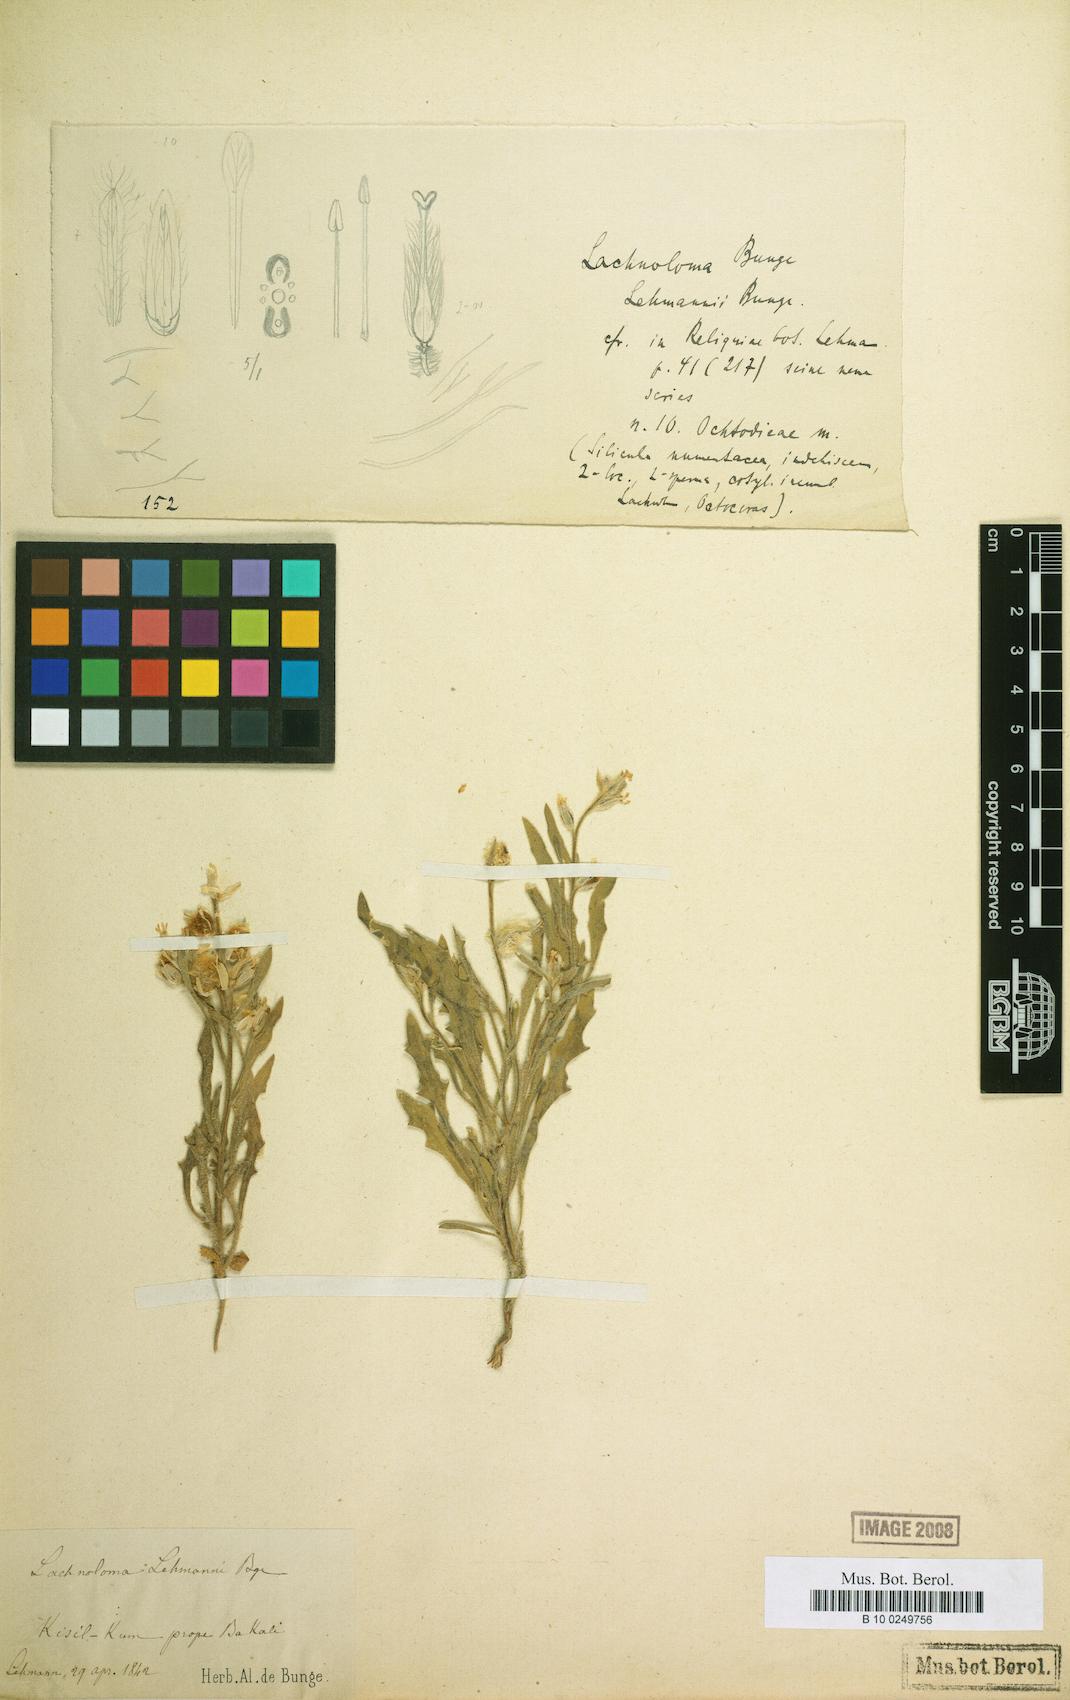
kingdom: Plantae
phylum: Tracheophyta
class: Magnoliopsida
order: Brassicales
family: Brassicaceae
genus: Lachnoloma
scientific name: Lachnoloma lehmannii
